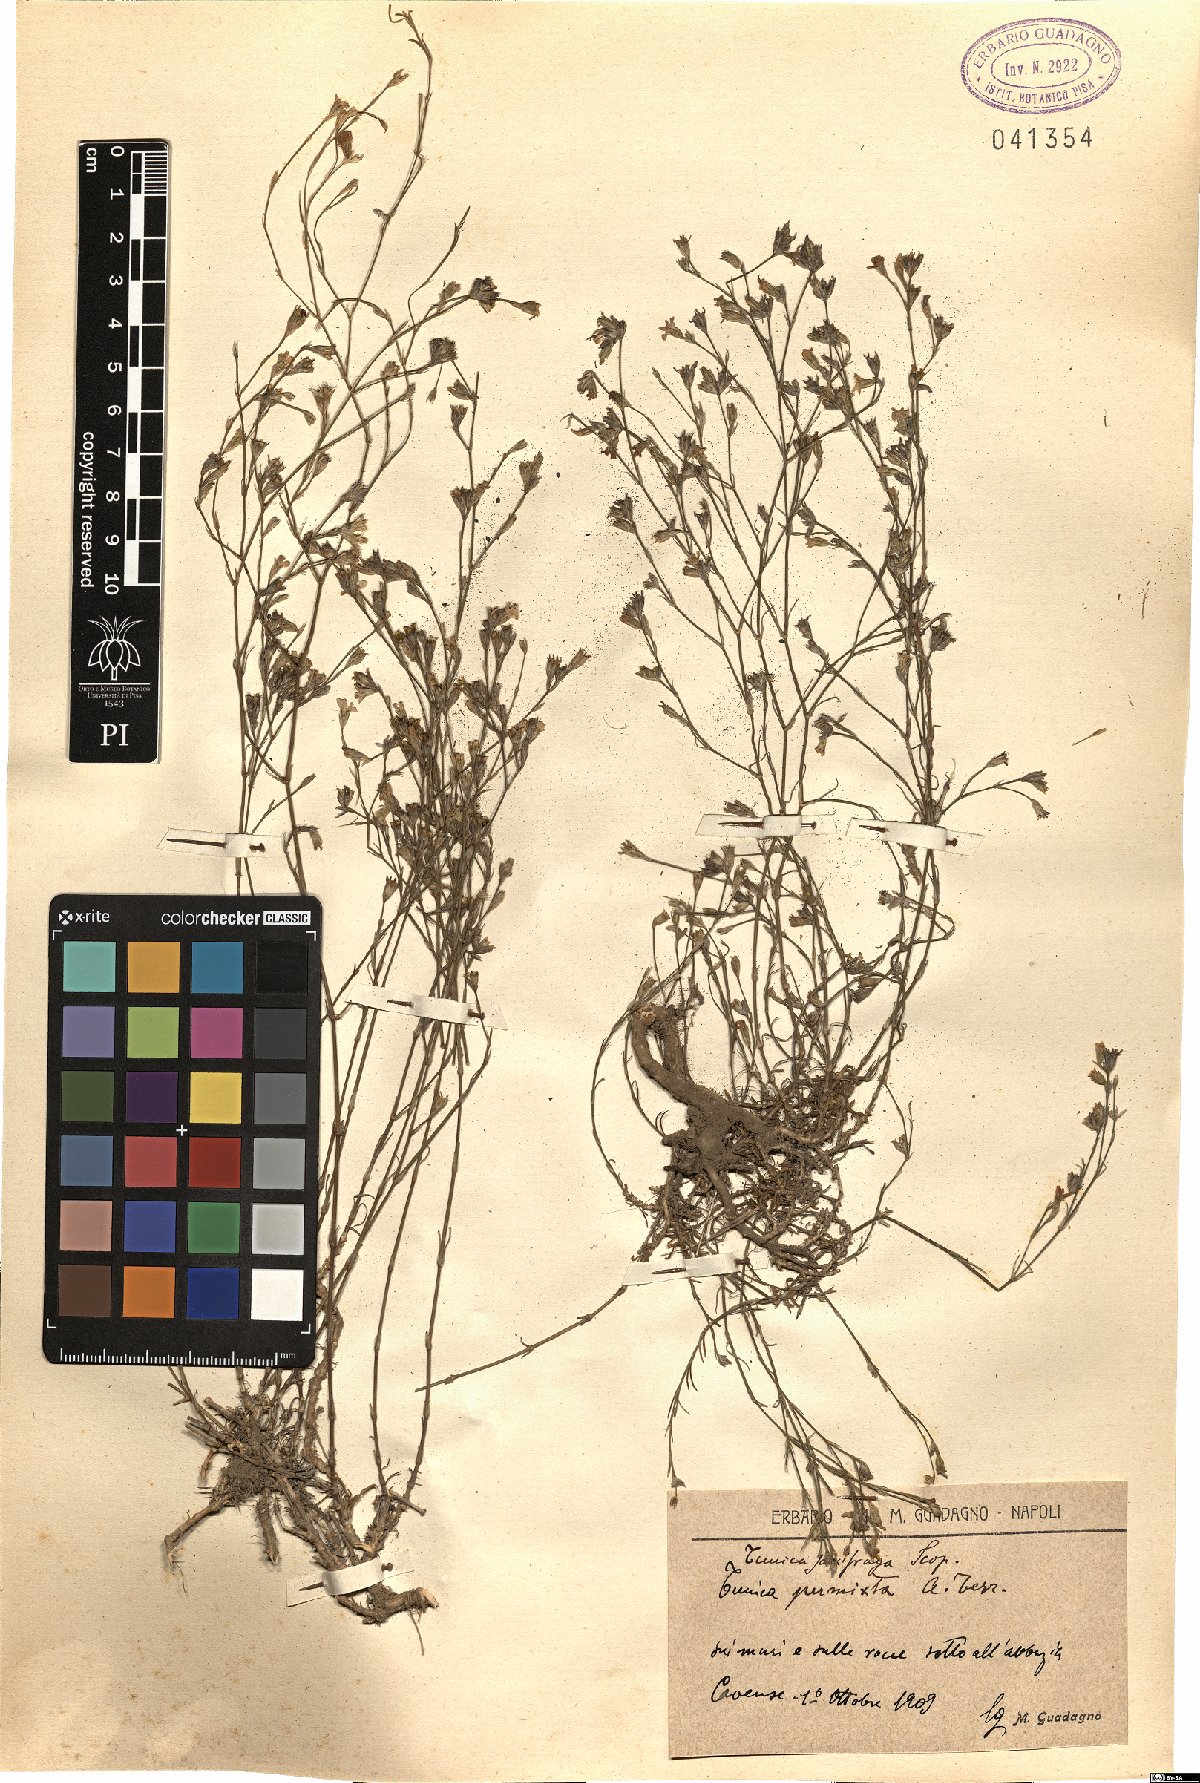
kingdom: Plantae
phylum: Tracheophyta
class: Magnoliopsida
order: Caryophyllales
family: Caryophyllaceae
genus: Petrorhagia
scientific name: Petrorhagia saxifraga
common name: Tunicflower
